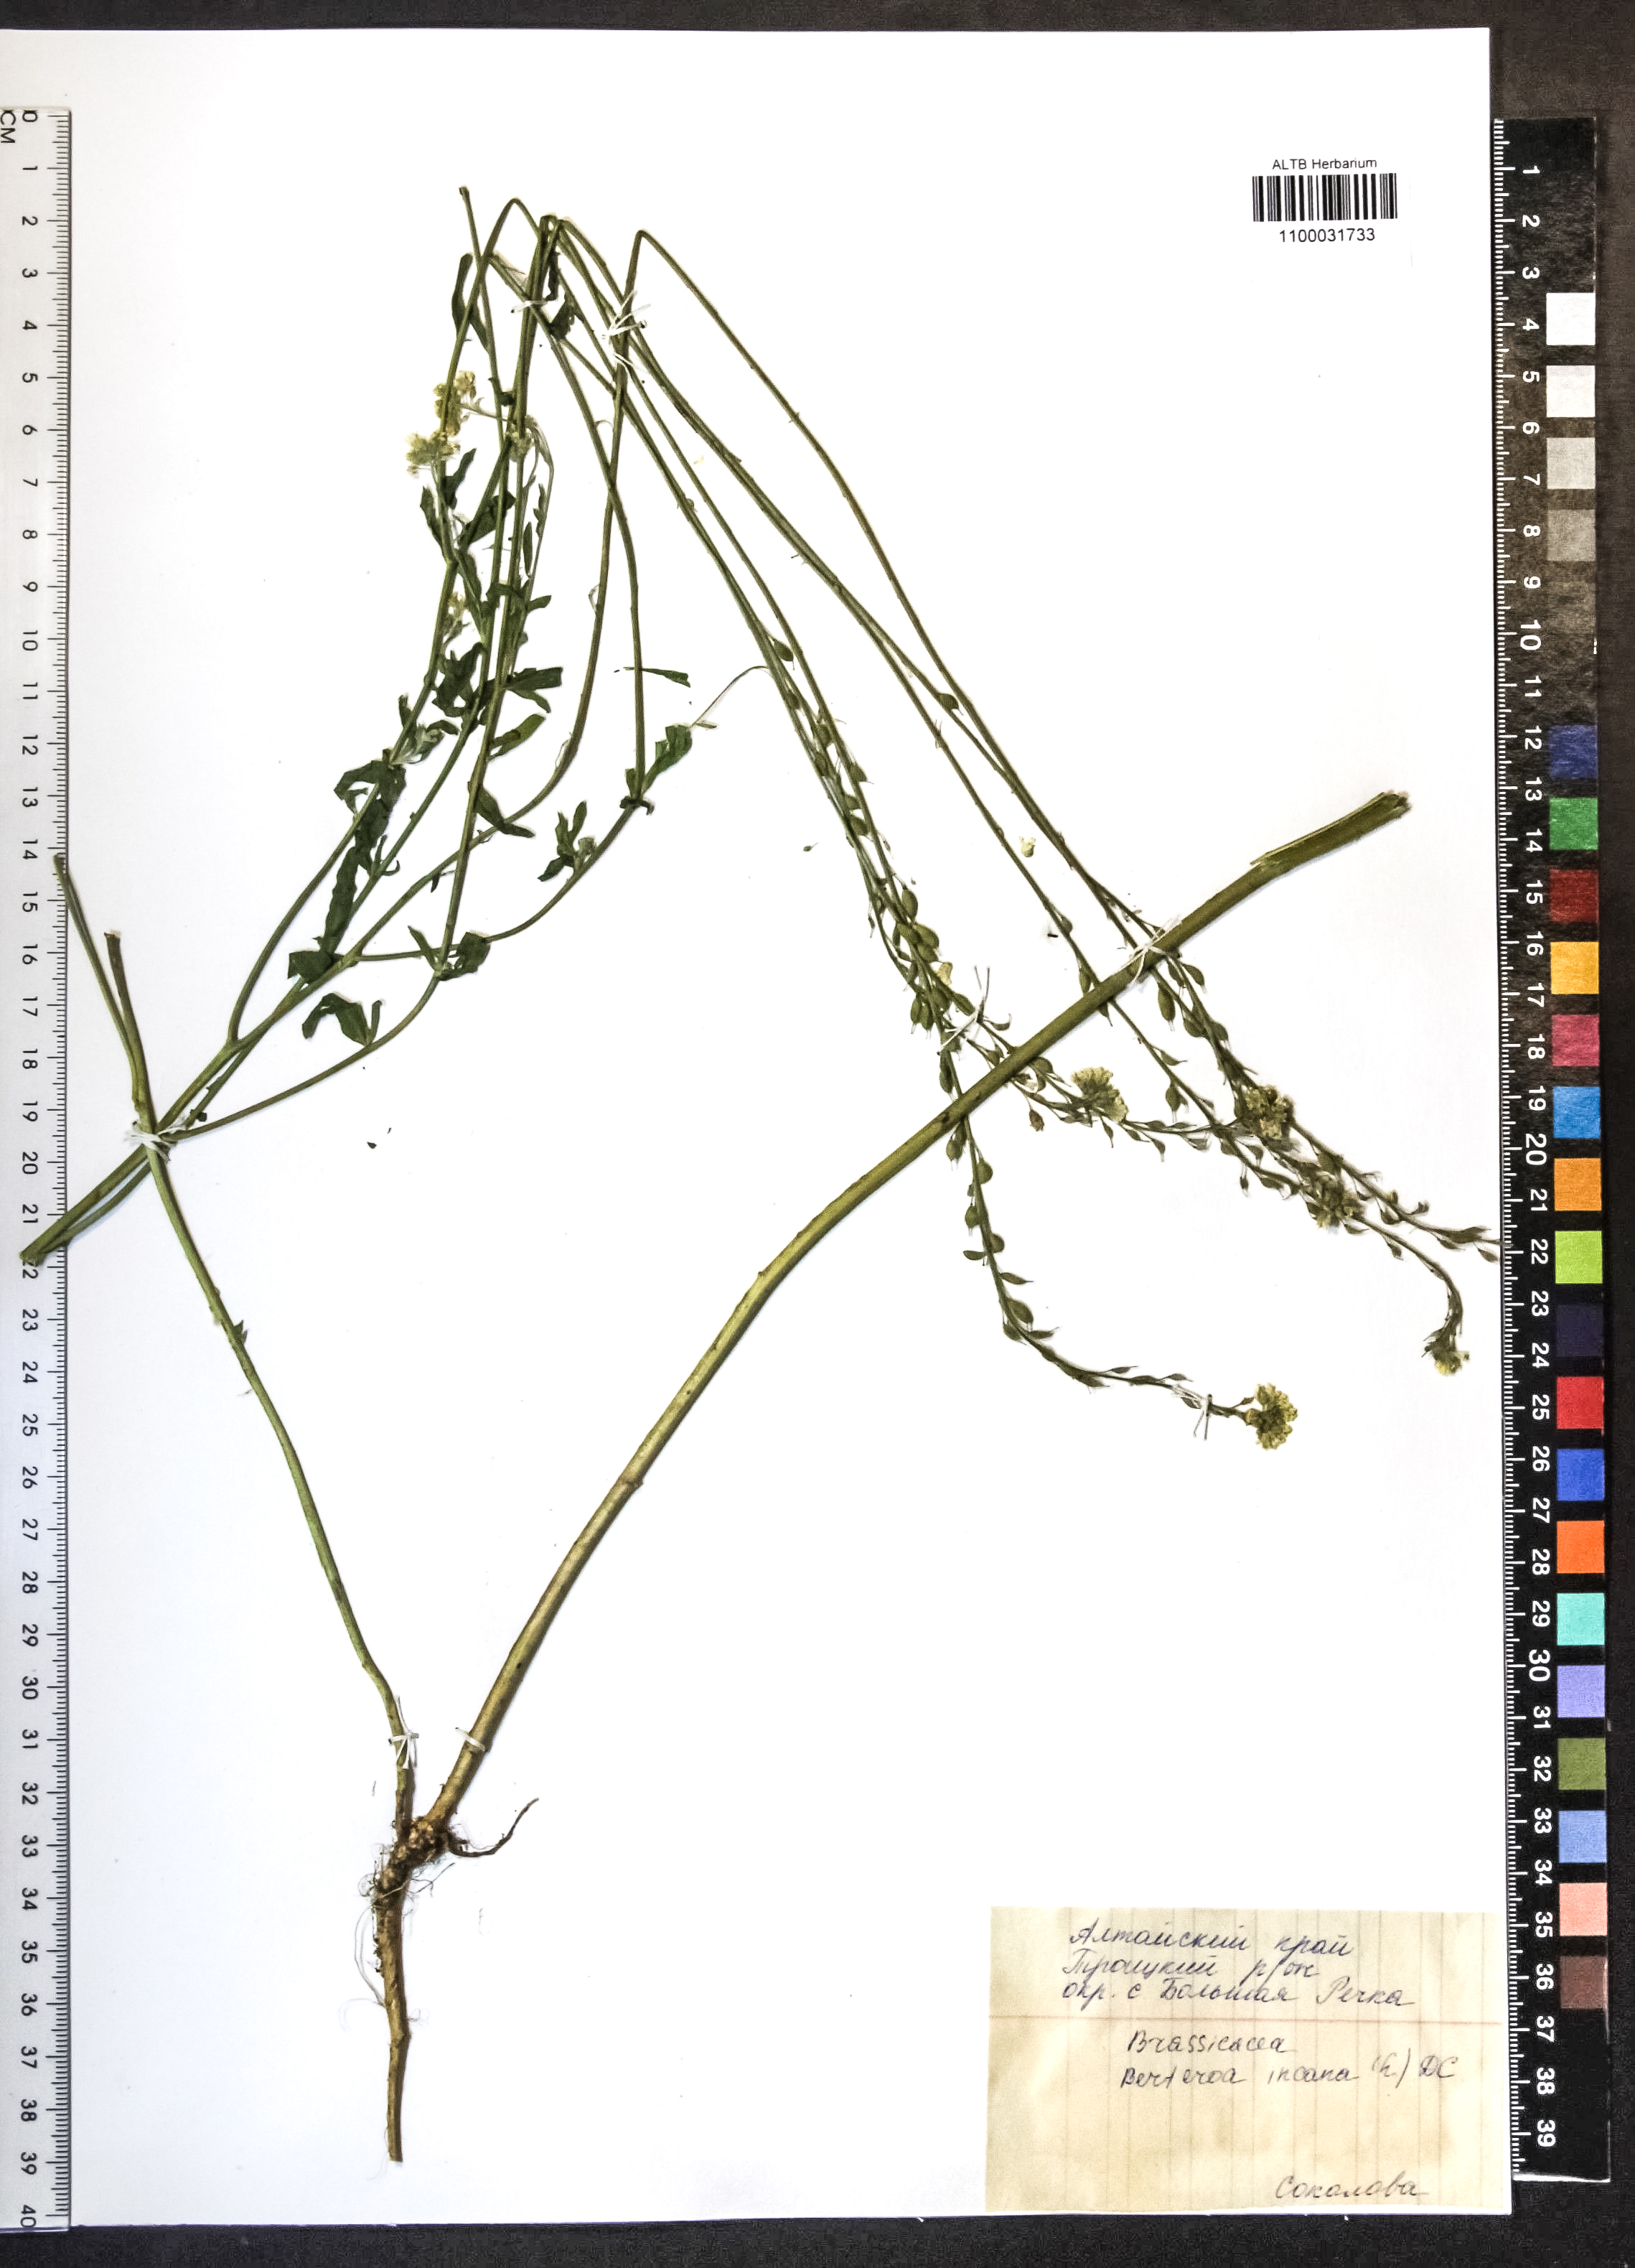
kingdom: Plantae
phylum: Tracheophyta
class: Magnoliopsida
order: Brassicales
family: Brassicaceae
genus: Berteroa
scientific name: Berteroa incana
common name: Hoary alison
